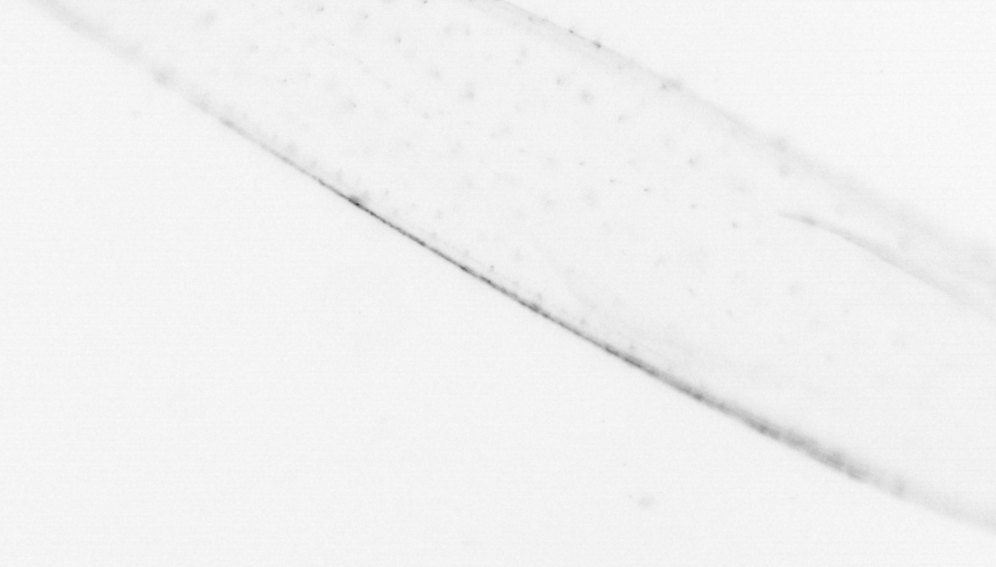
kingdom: Animalia
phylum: Chaetognatha
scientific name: Chaetognatha
